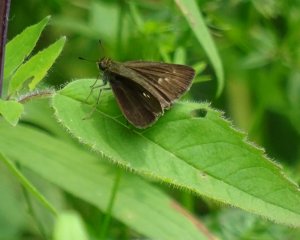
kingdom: Animalia
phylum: Arthropoda
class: Insecta
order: Lepidoptera
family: Hesperiidae
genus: Polites
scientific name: Polites egeremet
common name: Northern Broken-Dash
